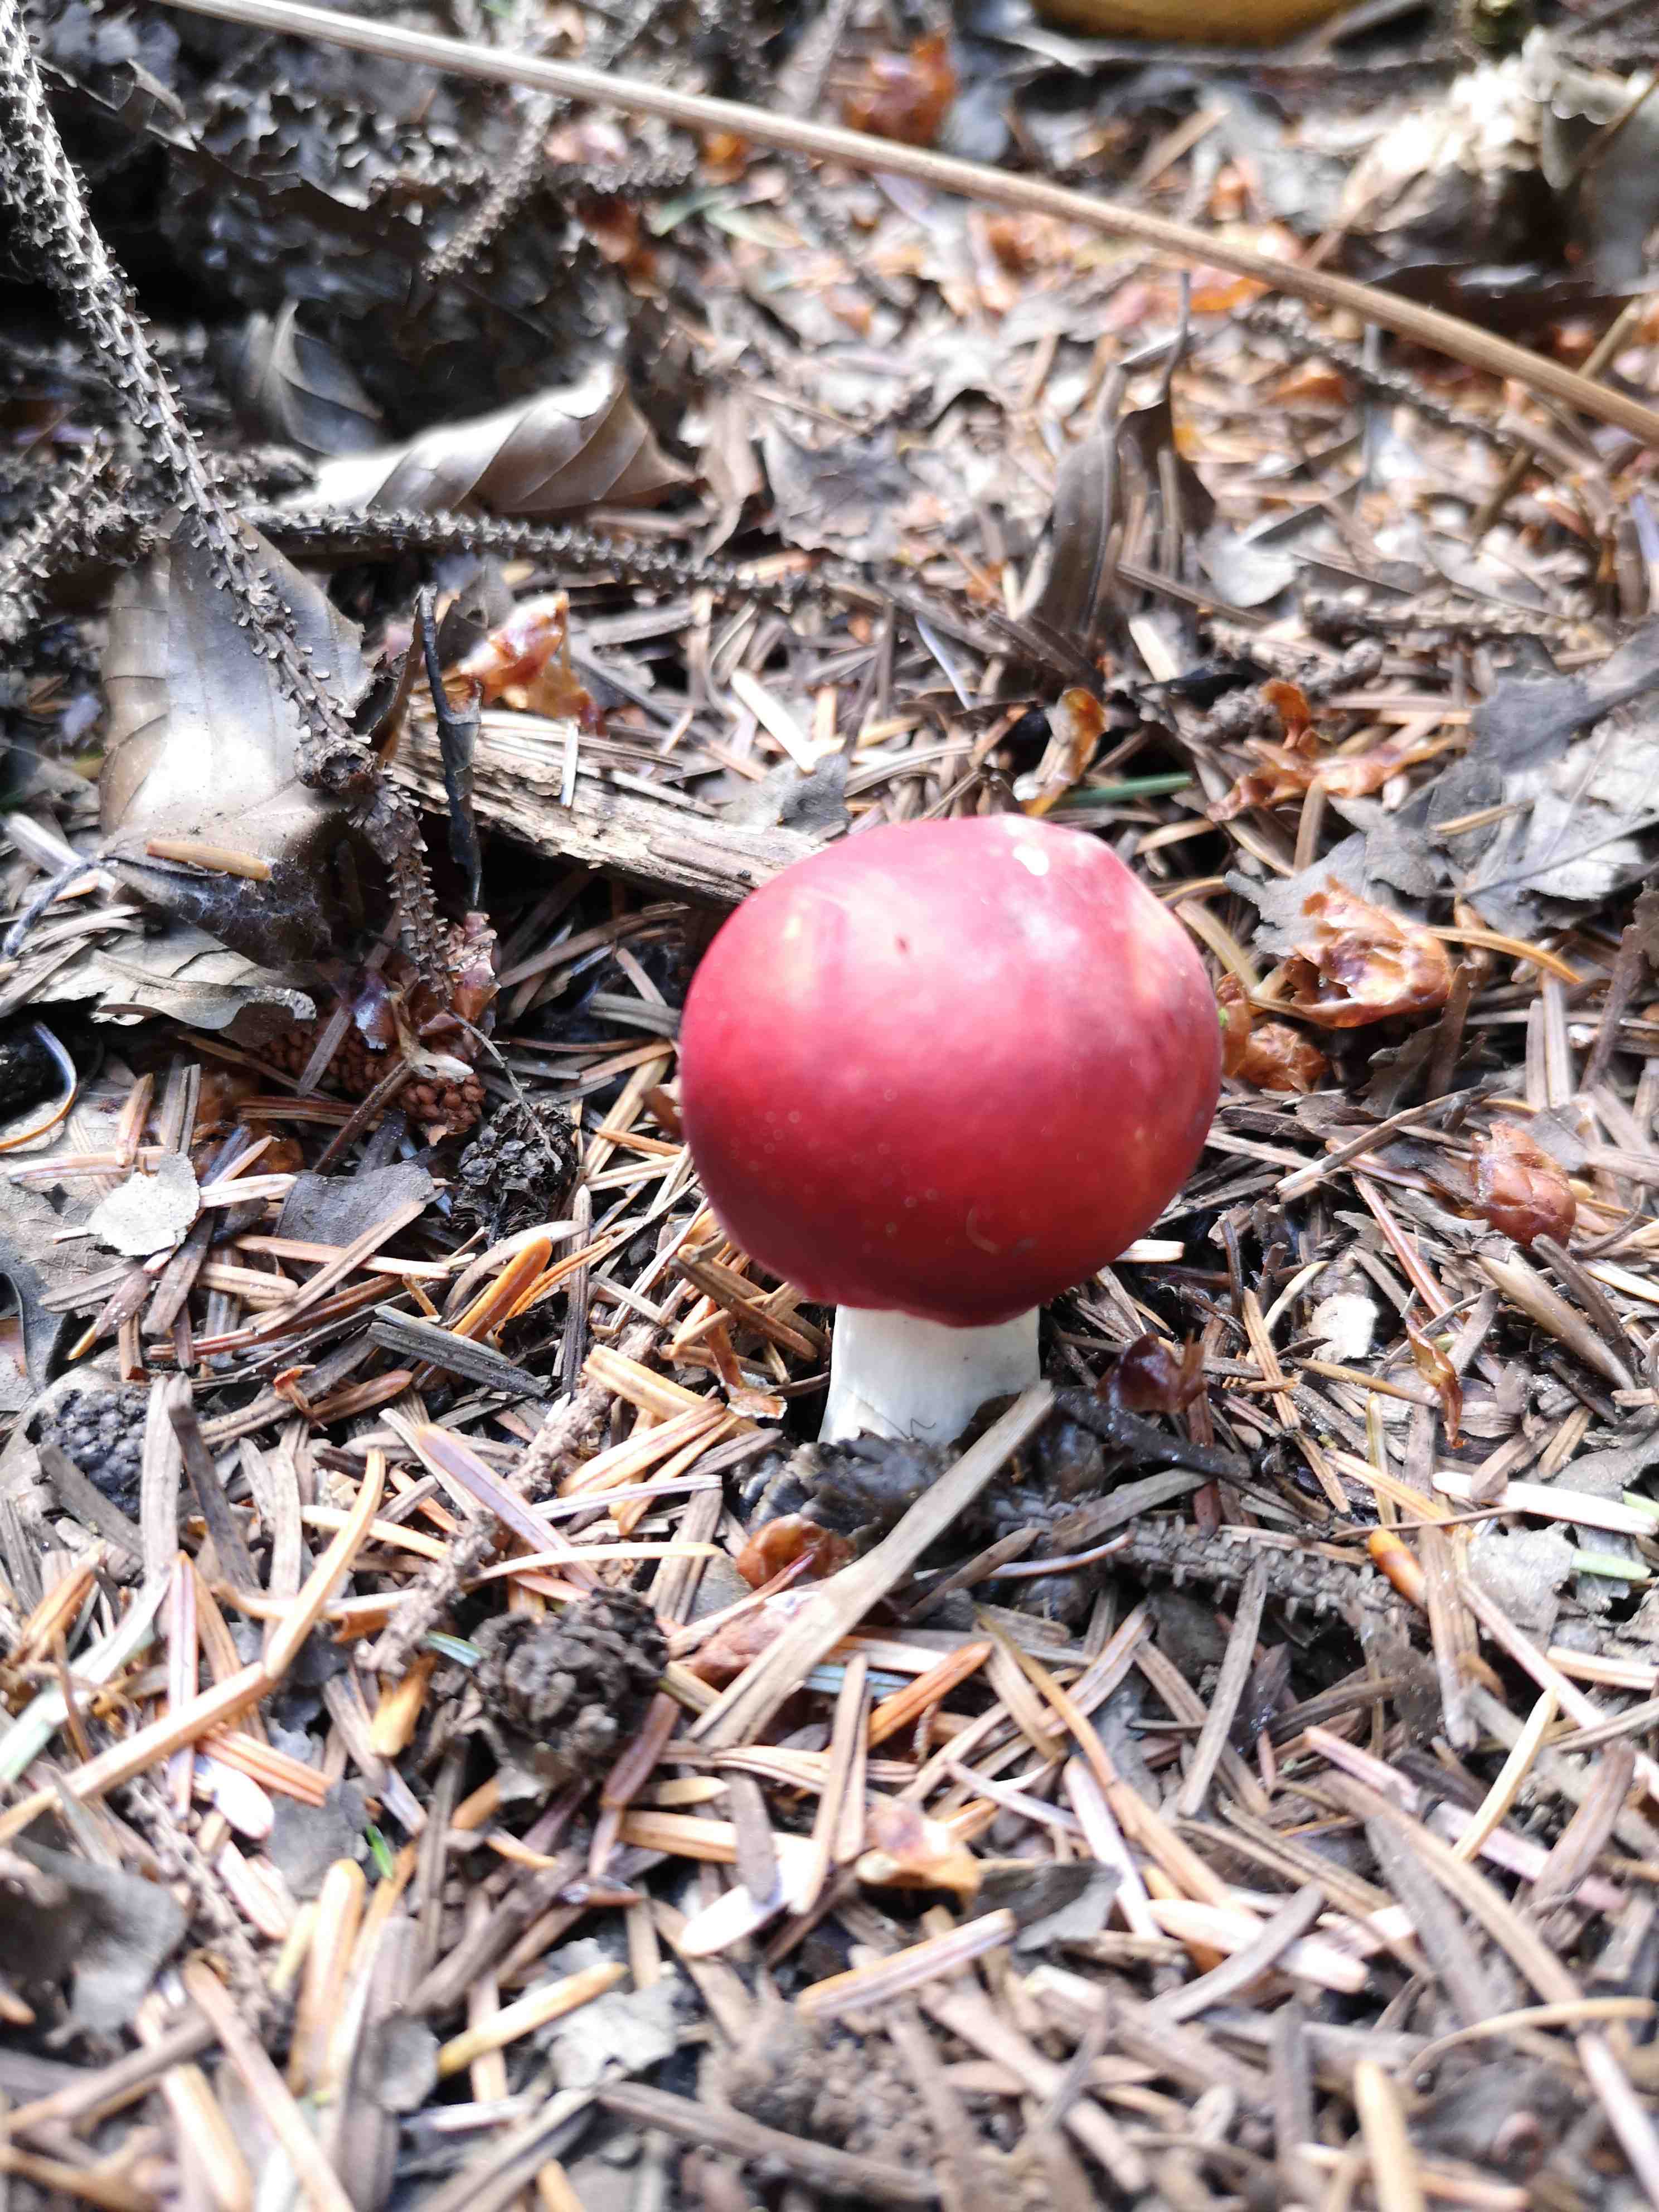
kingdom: Fungi
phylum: Basidiomycota
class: Agaricomycetes
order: Russulales
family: Russulaceae
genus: Russula
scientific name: Russula
